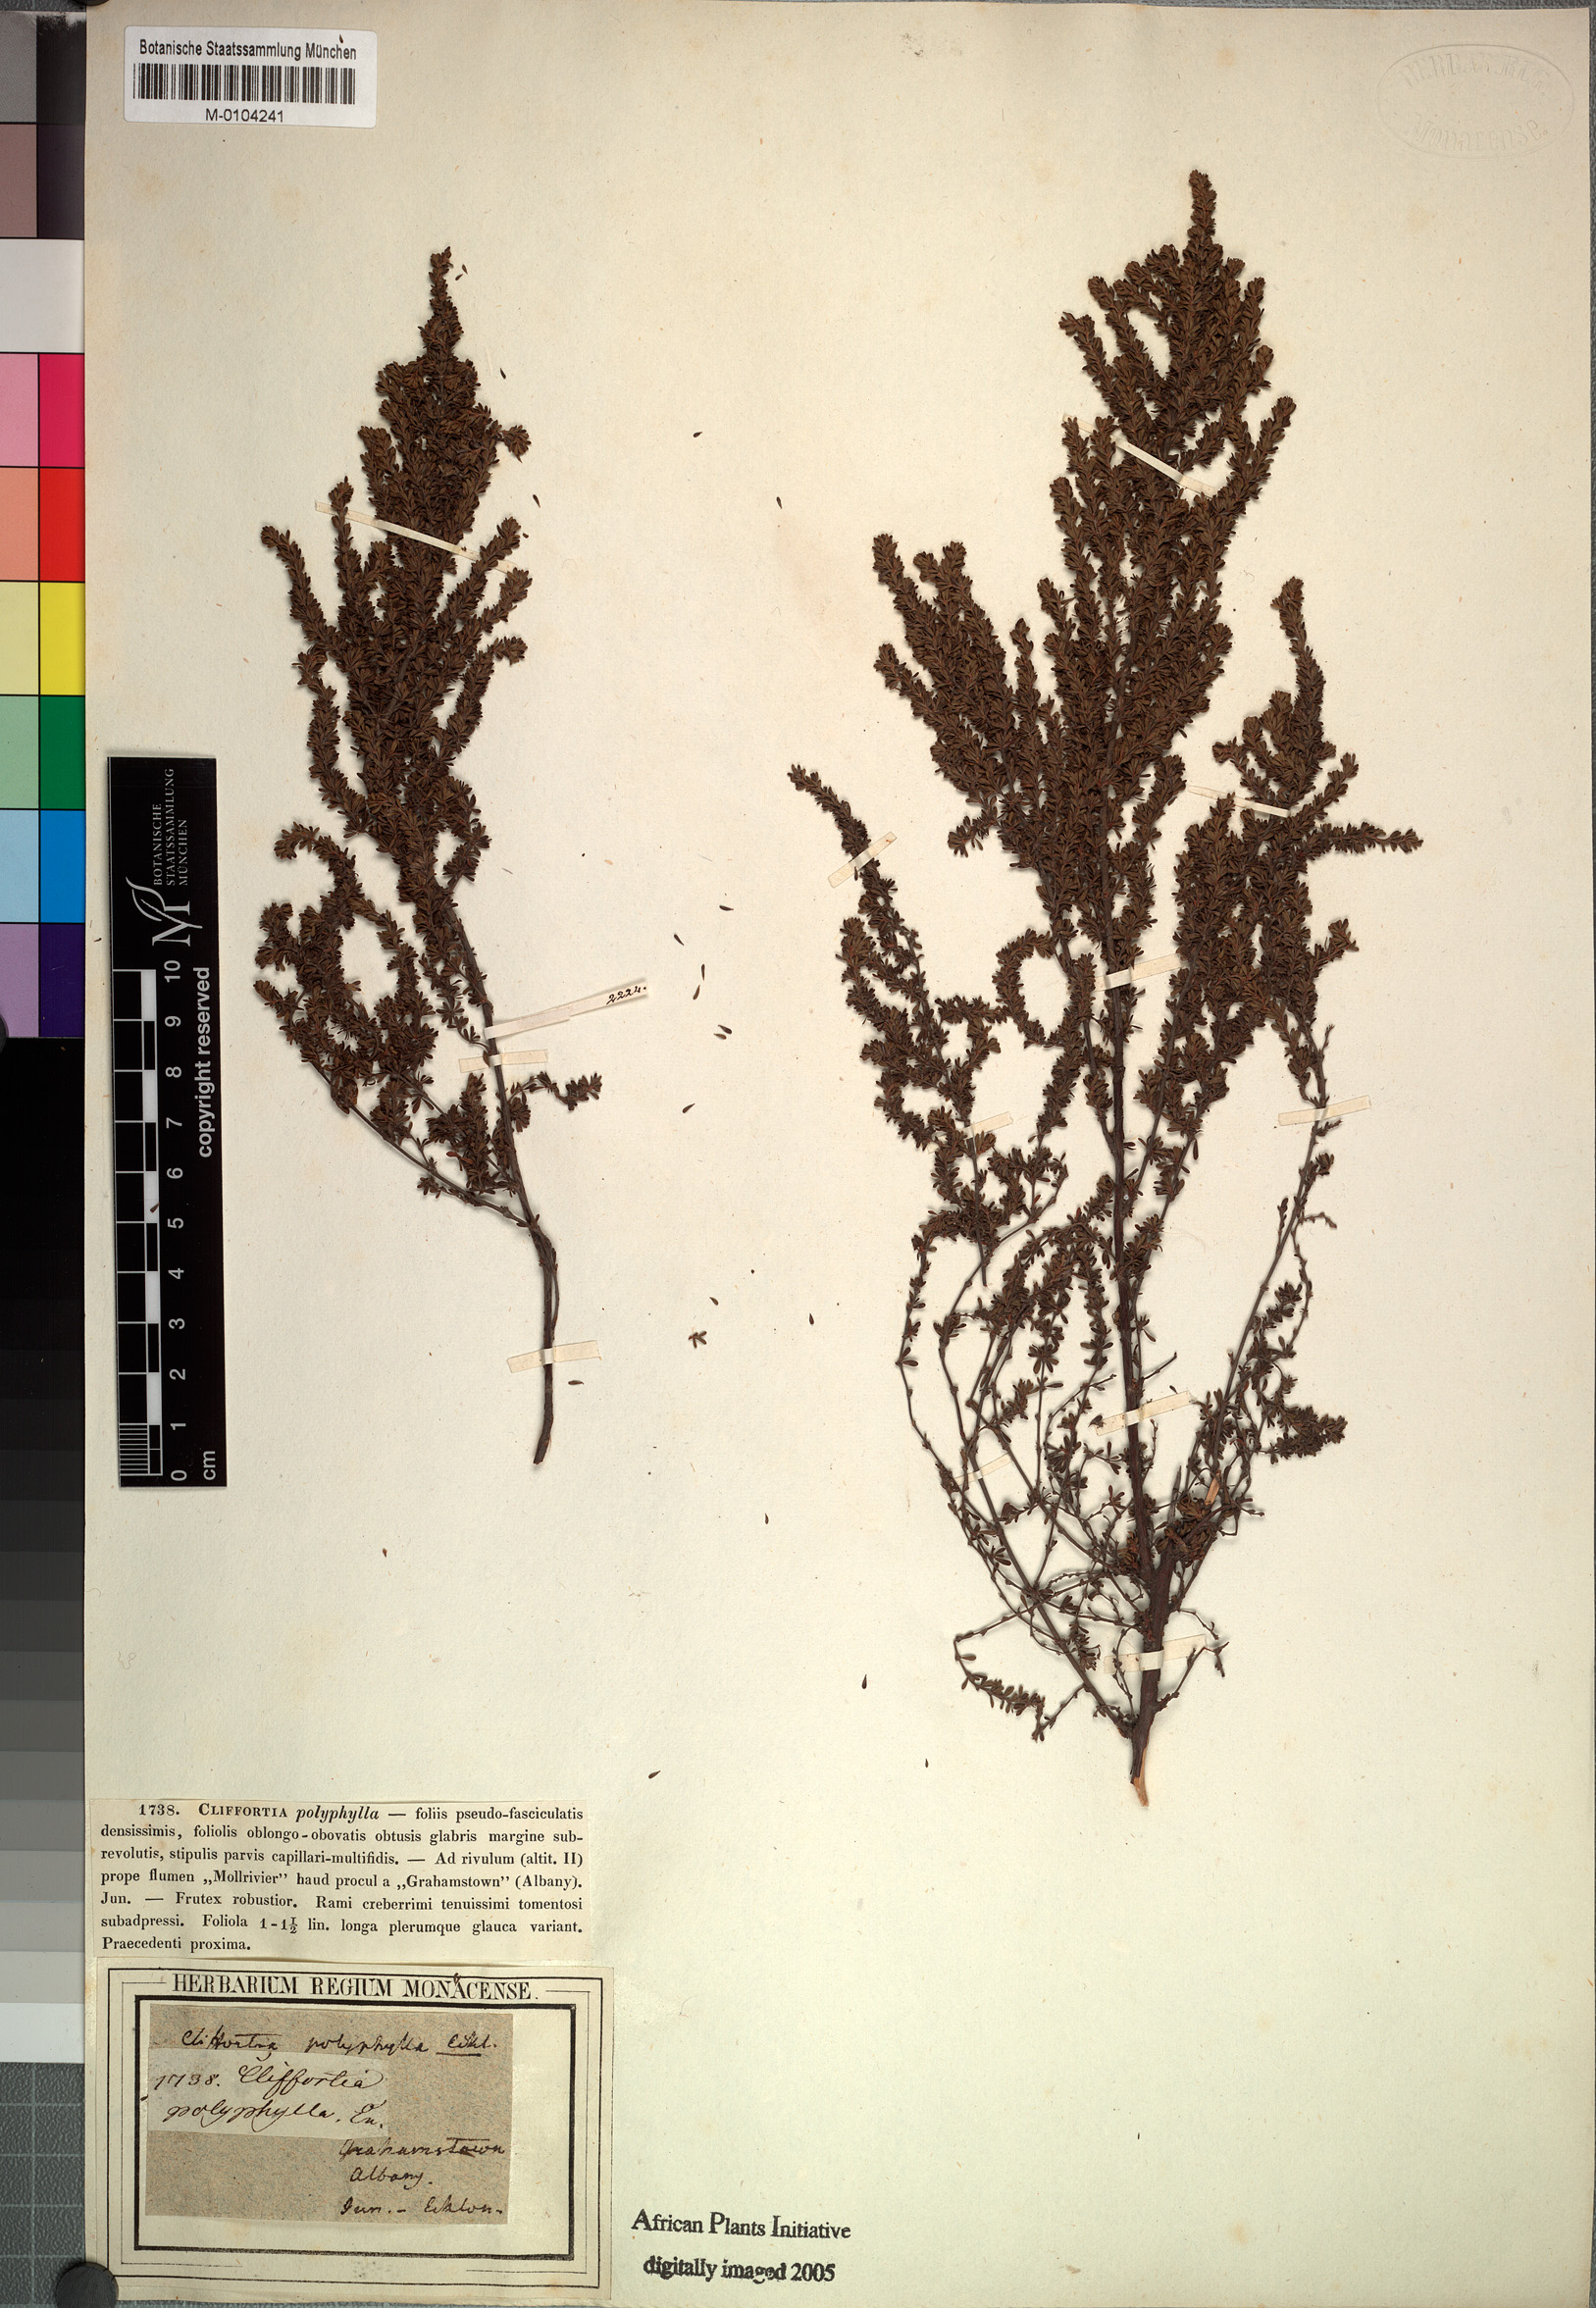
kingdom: Plantae
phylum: Tracheophyta
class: Magnoliopsida
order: Rosales
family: Rosaceae
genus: Cliffortia
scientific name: Cliffortia serpyllifolia
